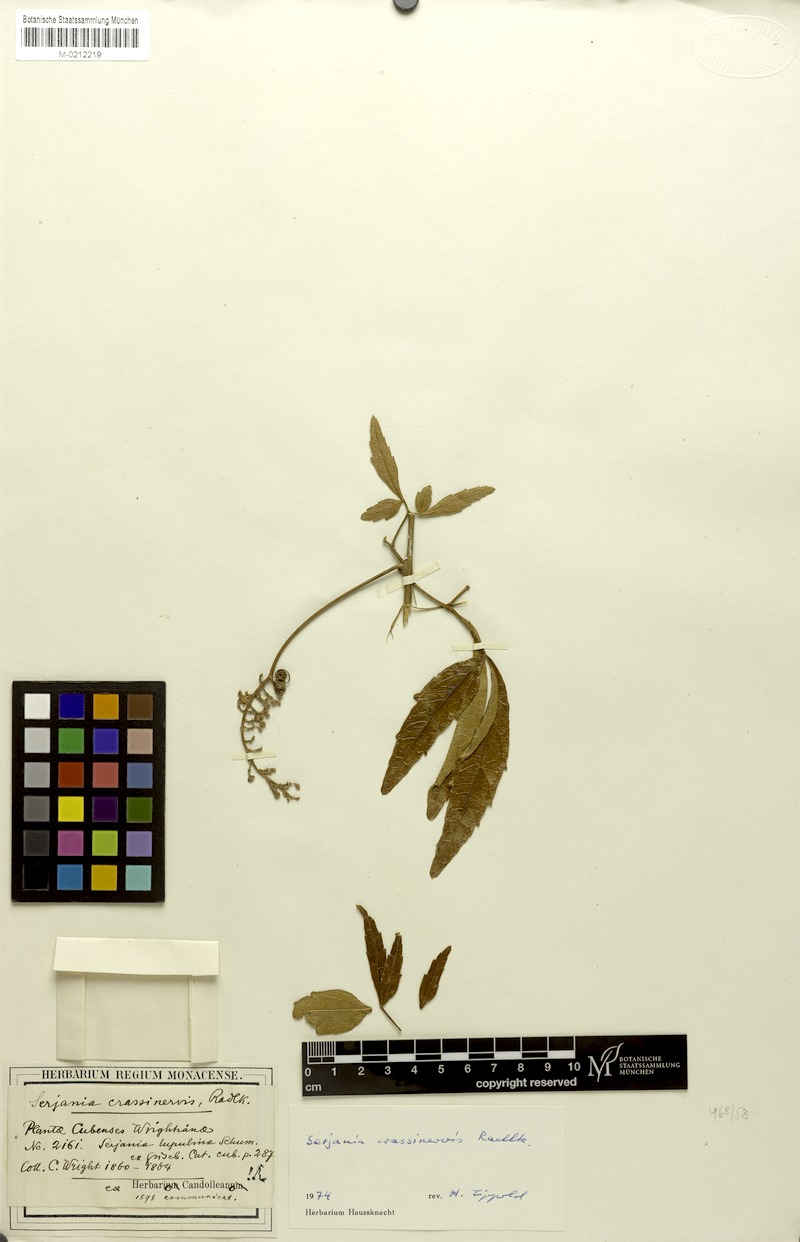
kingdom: Plantae
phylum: Tracheophyta
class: Magnoliopsida
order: Sapindales
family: Sapindaceae
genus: Serjania
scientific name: Serjania crassinervis
